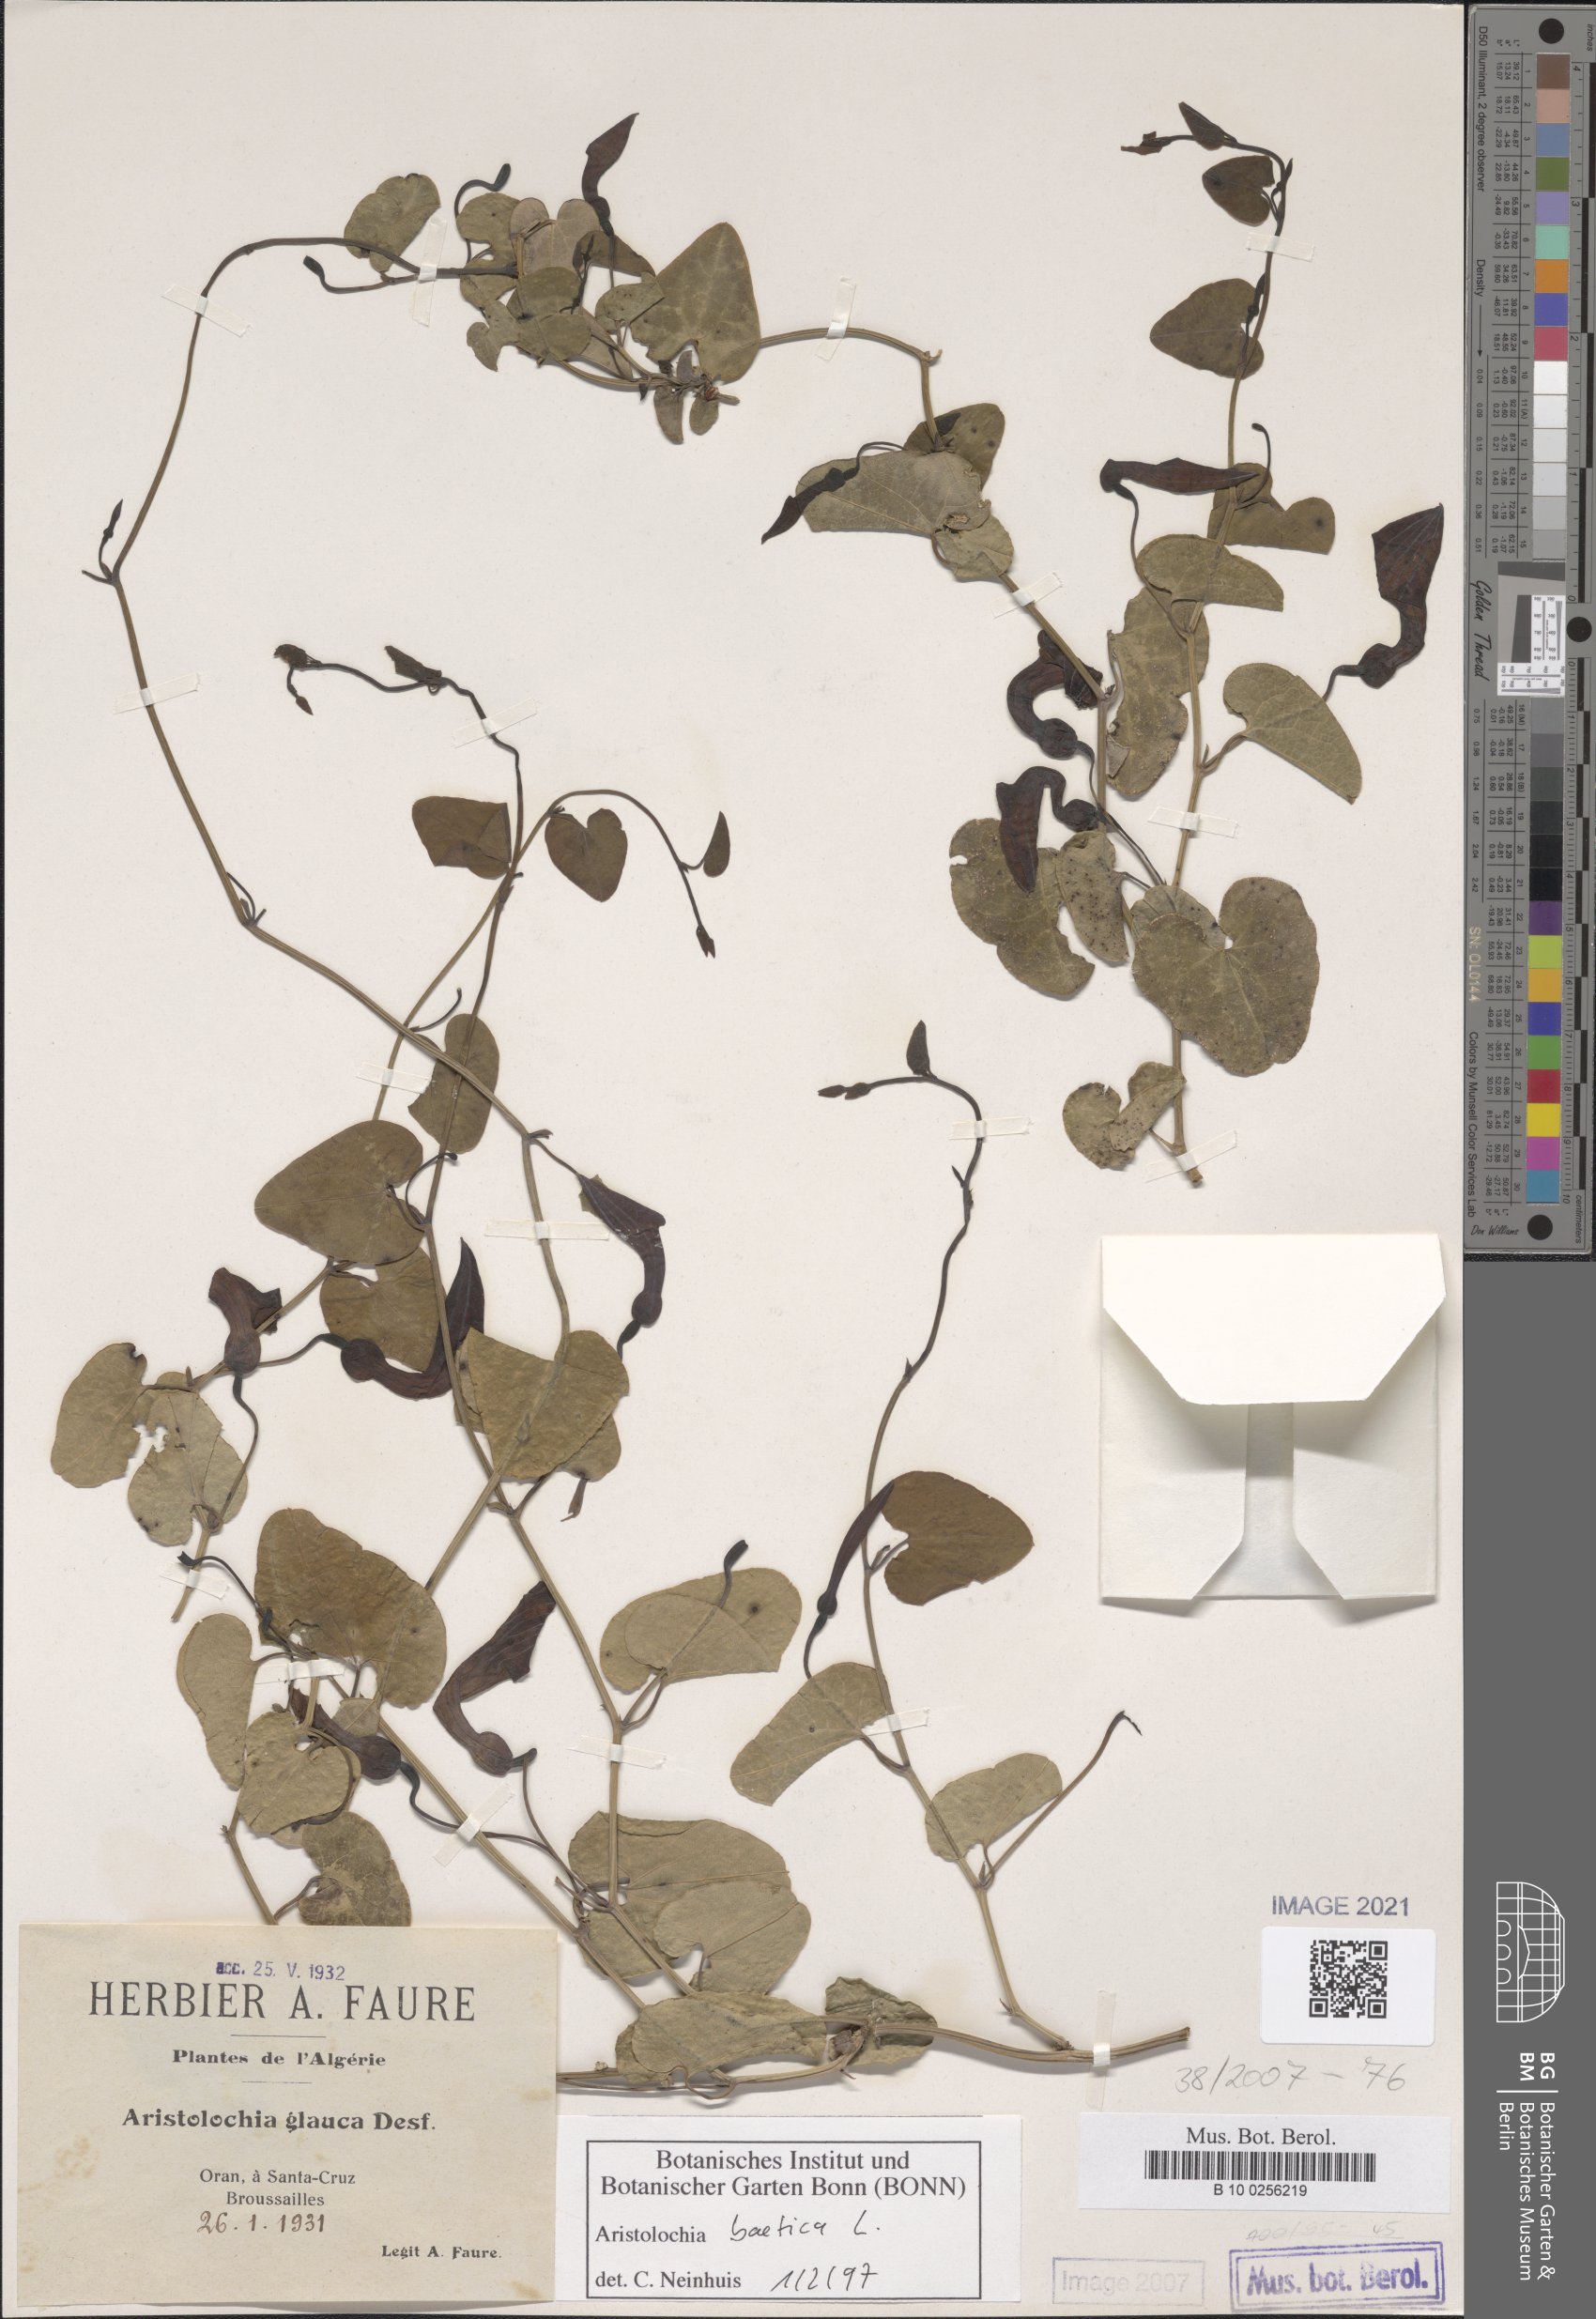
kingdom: Plantae
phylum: Tracheophyta
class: Magnoliopsida
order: Piperales
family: Aristolochiaceae
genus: Aristolochia
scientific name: Aristolochia baetica
